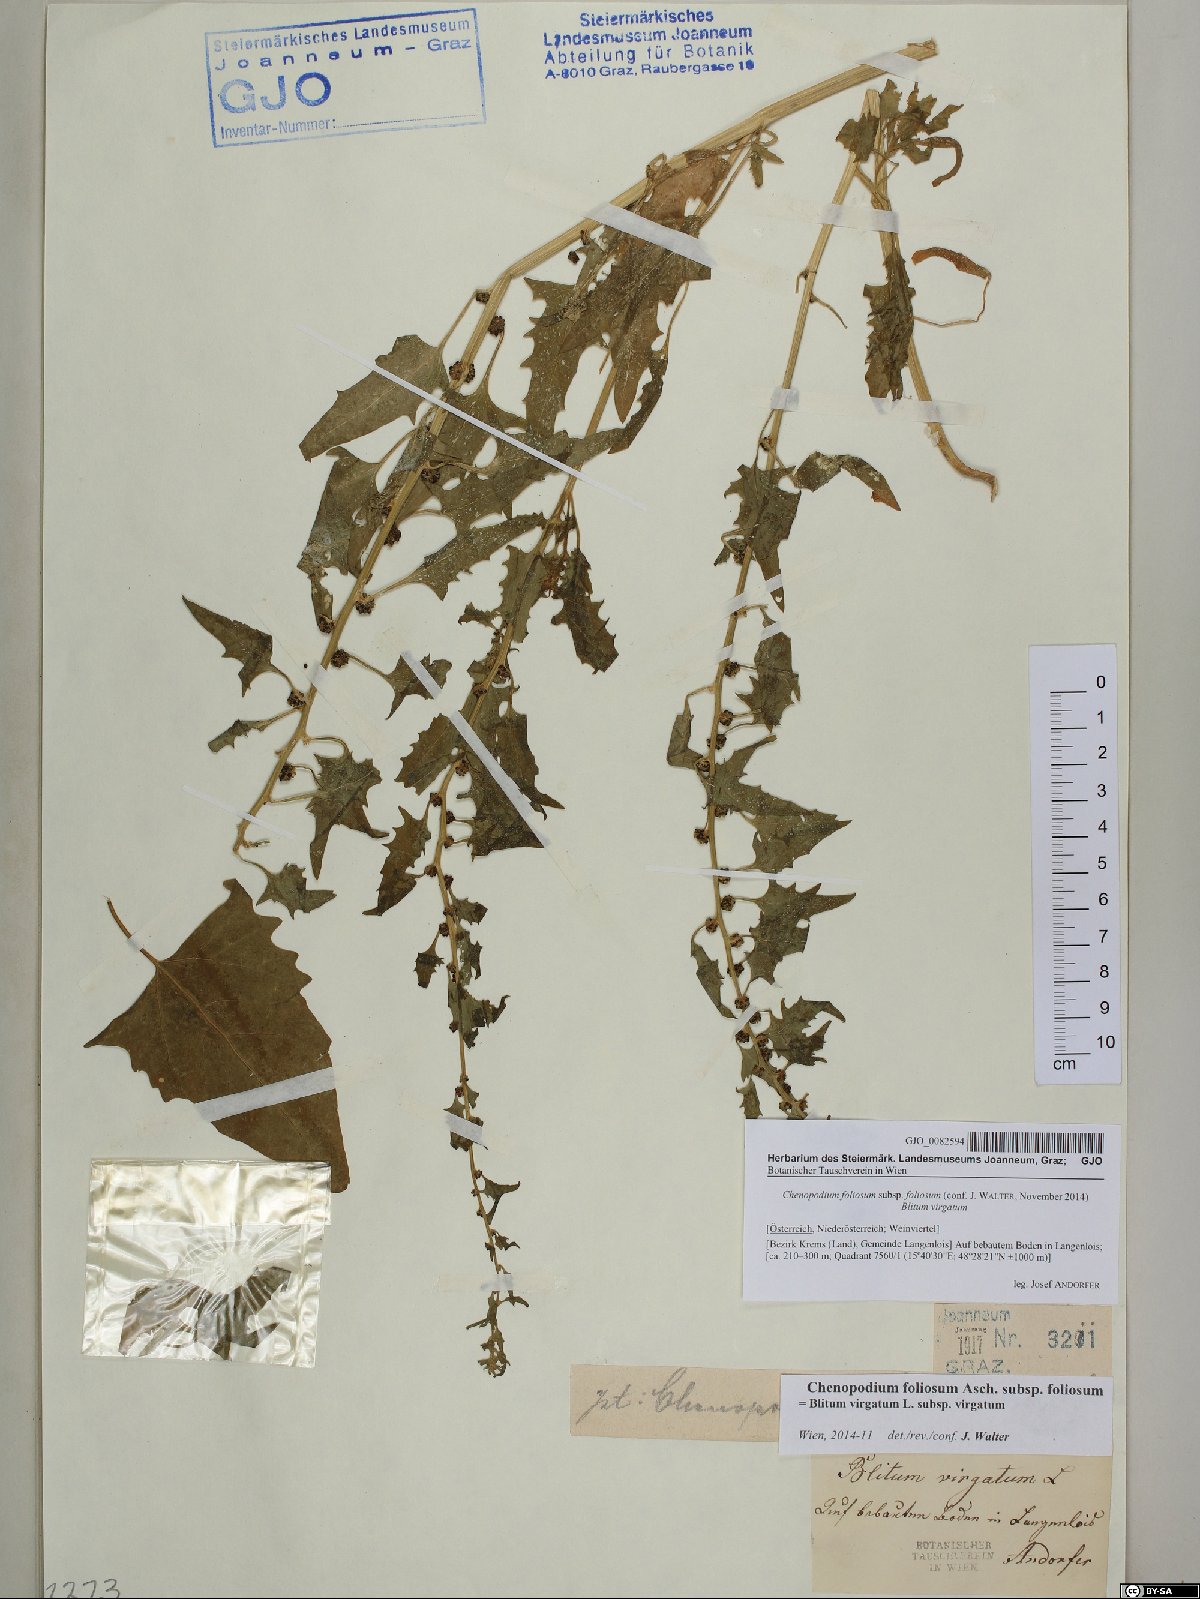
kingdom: Plantae
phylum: Tracheophyta
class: Magnoliopsida
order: Caryophyllales
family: Amaranthaceae
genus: Blitum
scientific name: Blitum virgatum
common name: Strawberry goosefoot
